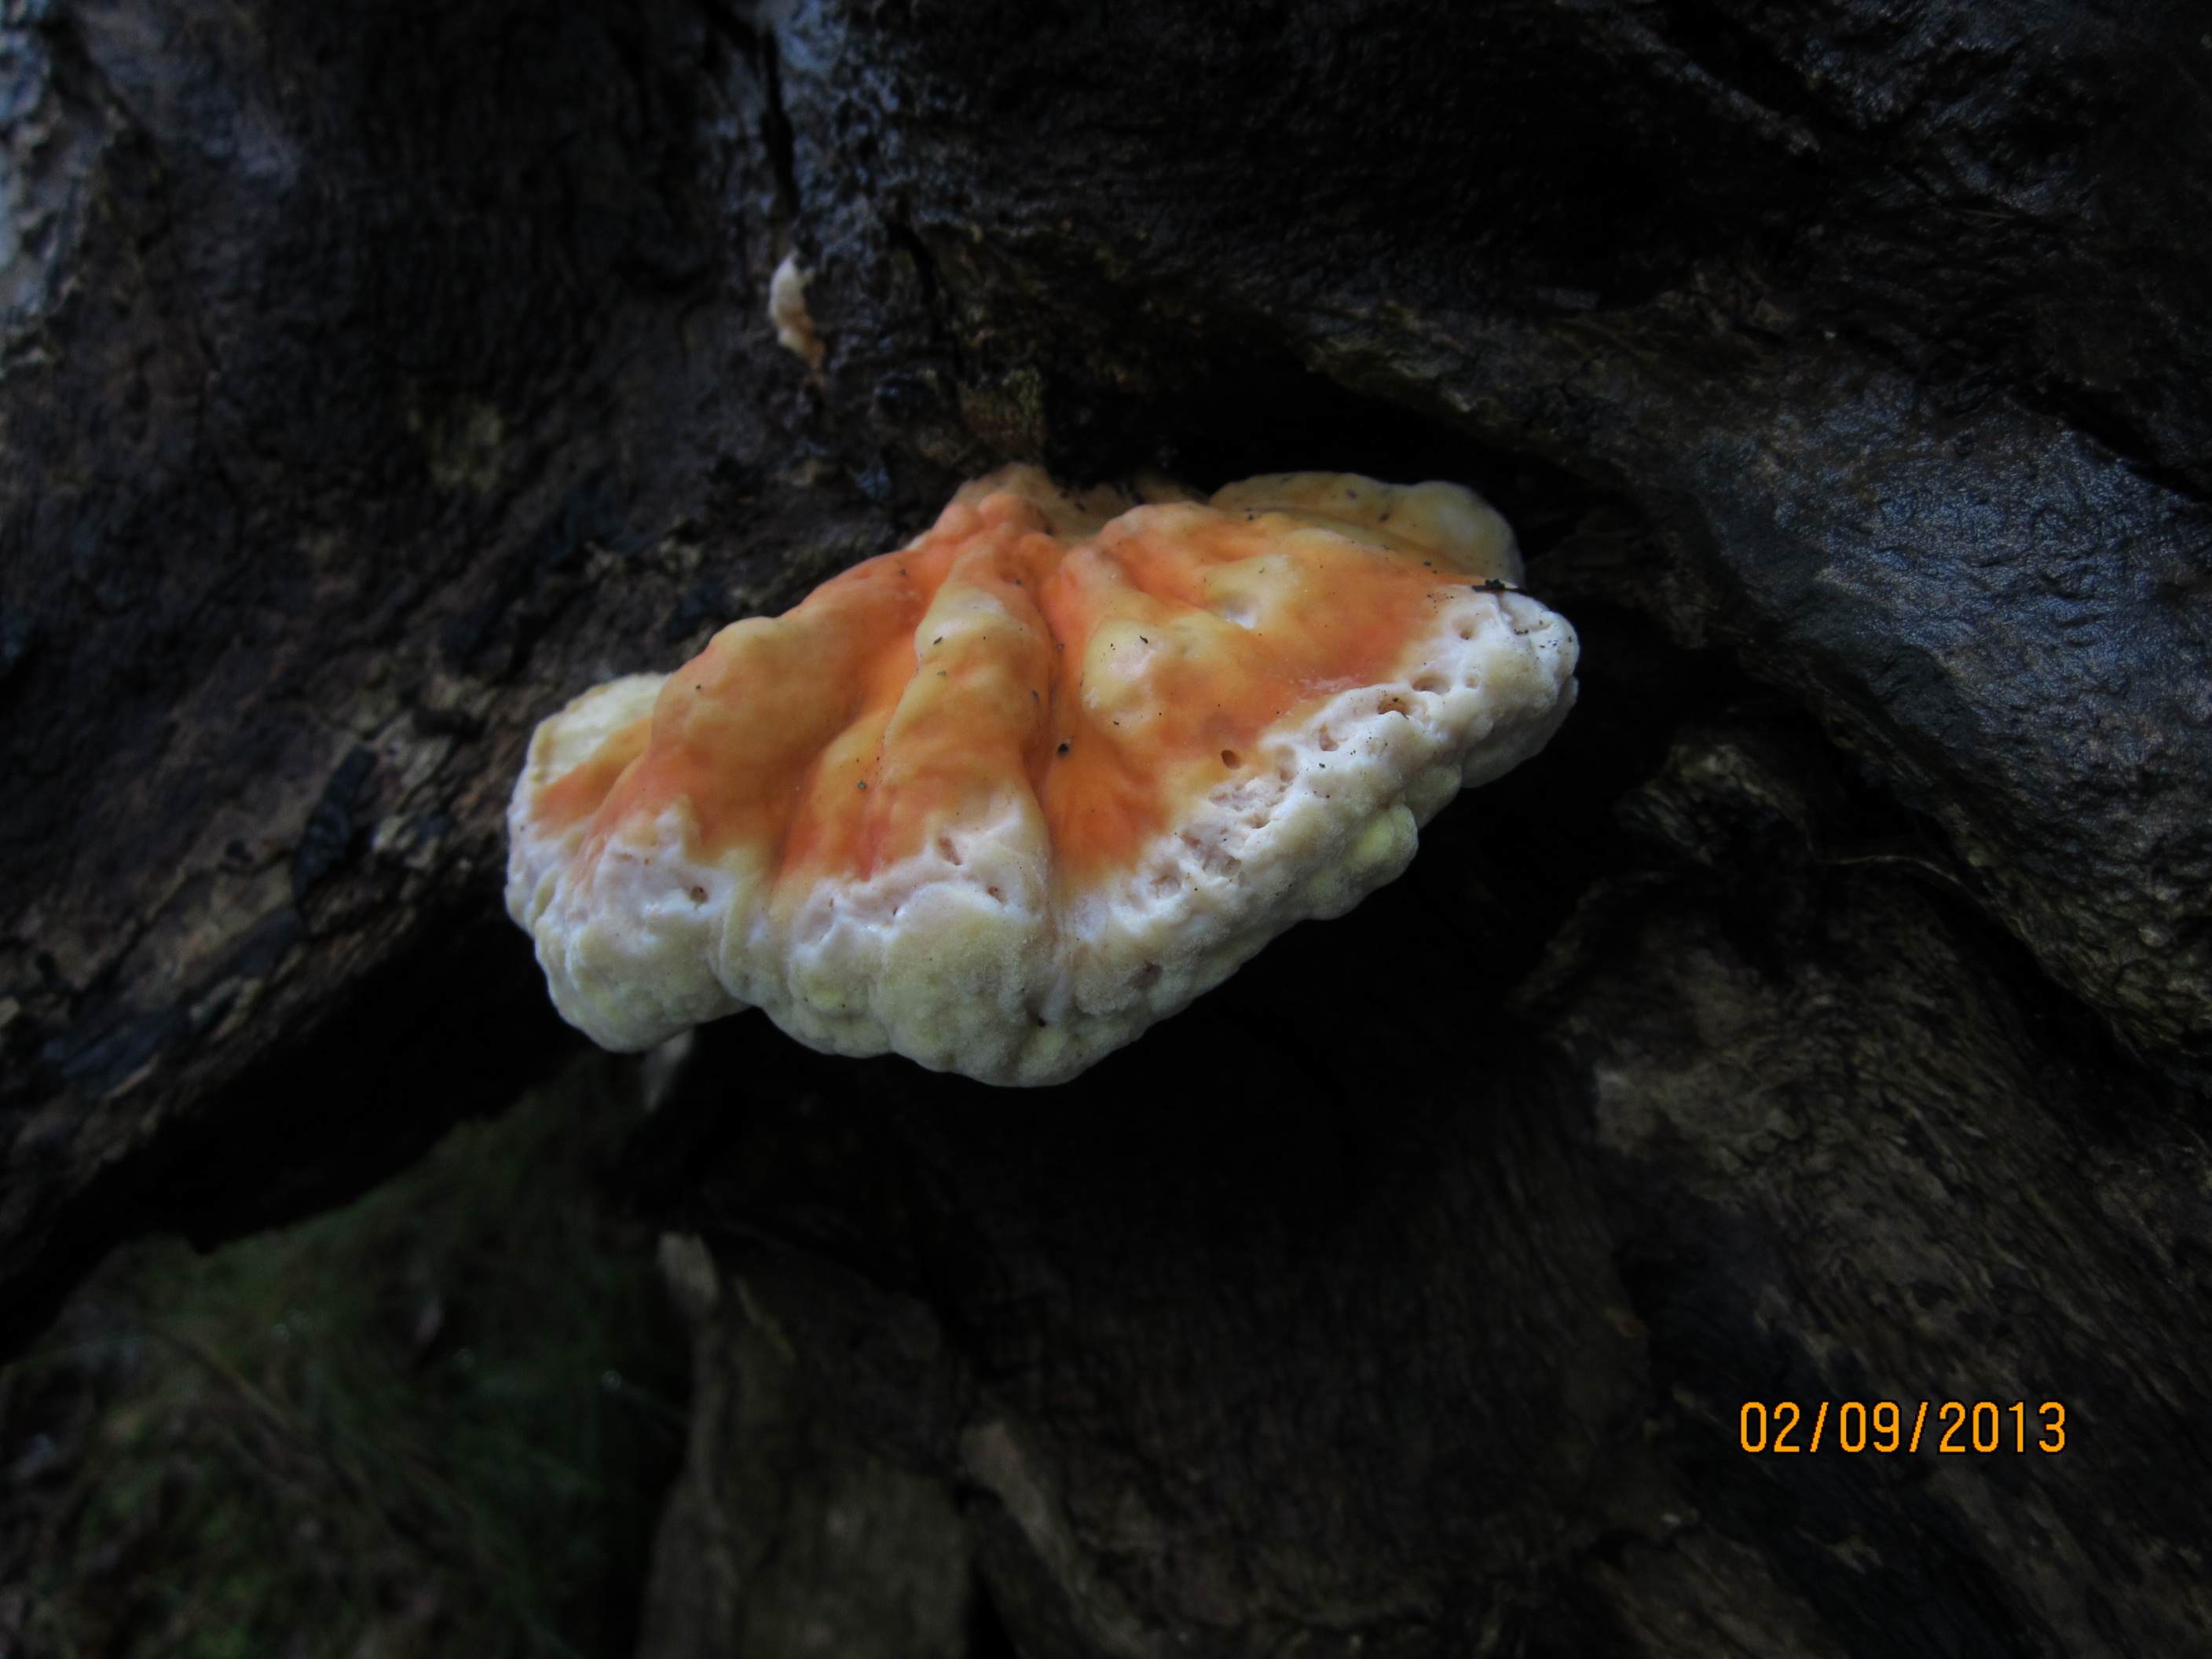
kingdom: Fungi
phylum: Basidiomycota
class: Agaricomycetes
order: Polyporales
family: Laetiporaceae
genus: Laetiporus
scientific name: Laetiporus sulphureus
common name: svovlporesvamp
